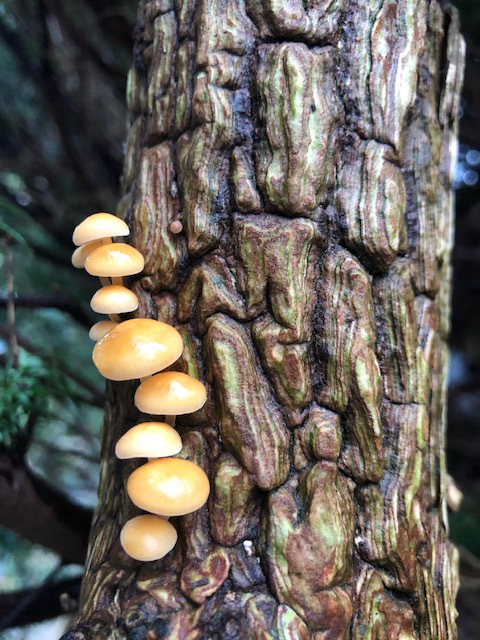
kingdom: Fungi
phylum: Basidiomycota
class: Agaricomycetes
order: Agaricales
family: Physalacriaceae
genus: Flammulina
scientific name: Flammulina velutipes
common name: gul fløjlsfod
